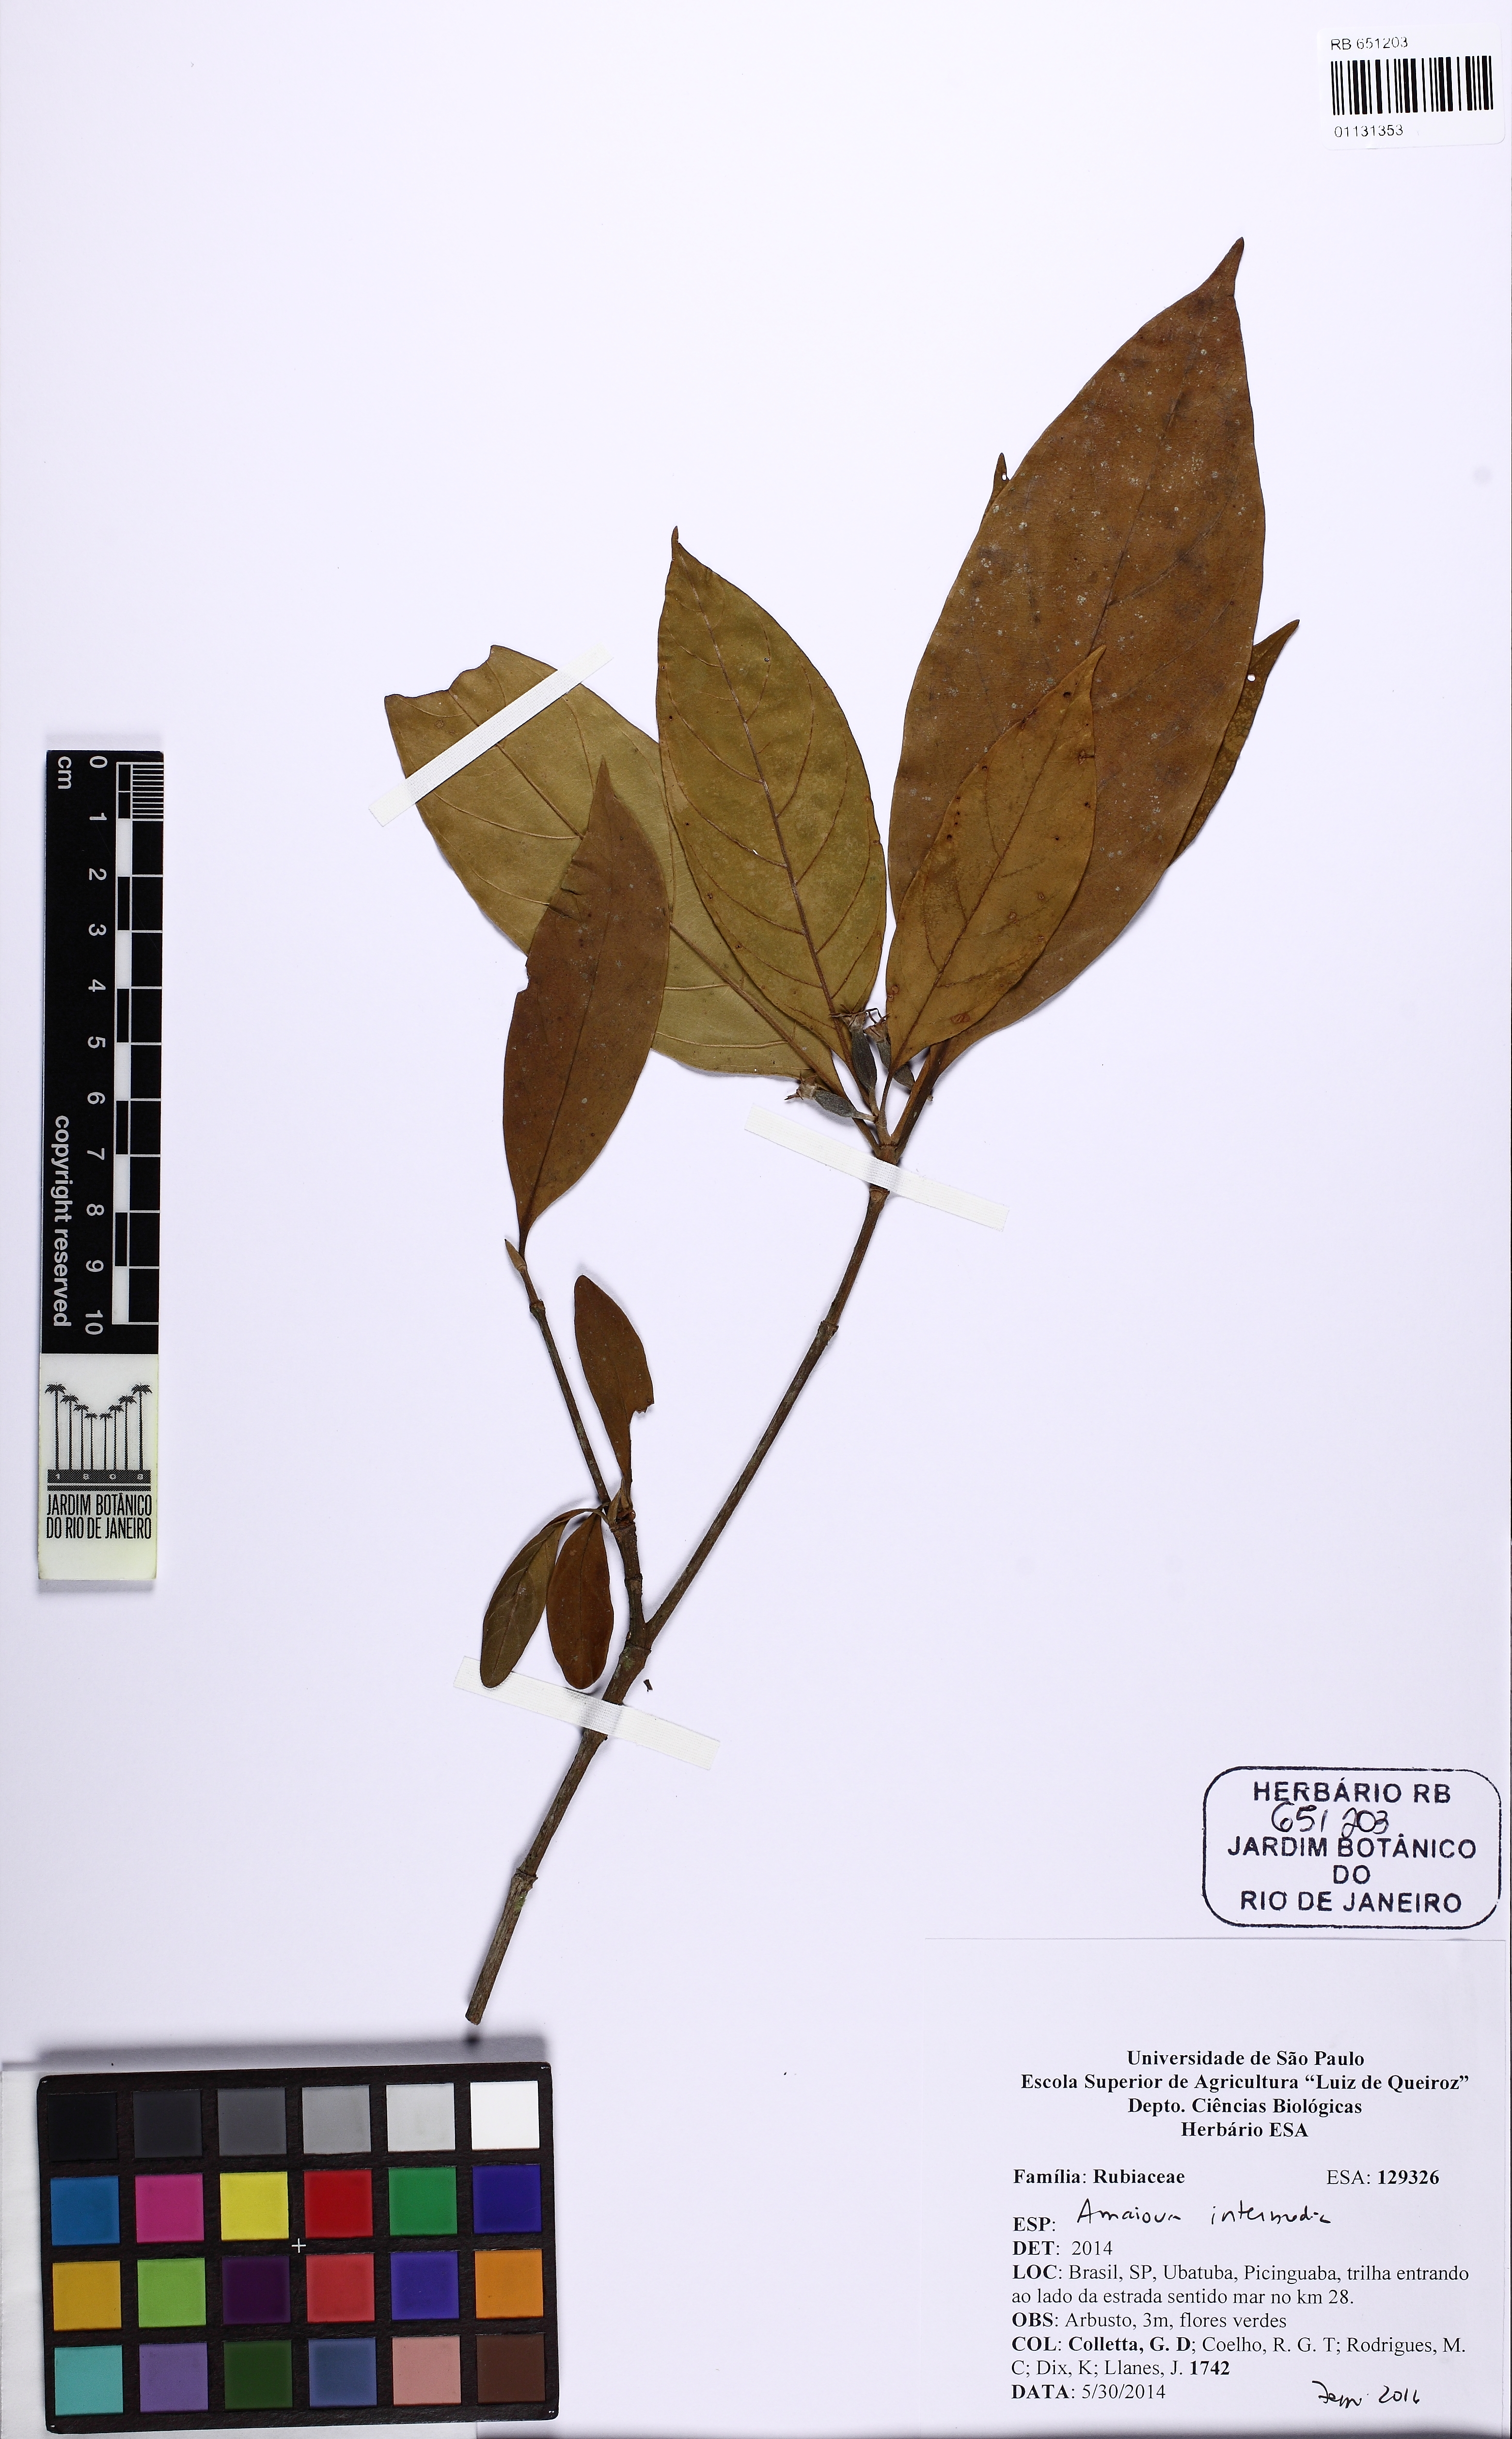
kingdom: Plantae
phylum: Tracheophyta
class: Magnoliopsida
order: Gentianales
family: Rubiaceae
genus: Amaioua
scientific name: Amaioua intermedia
